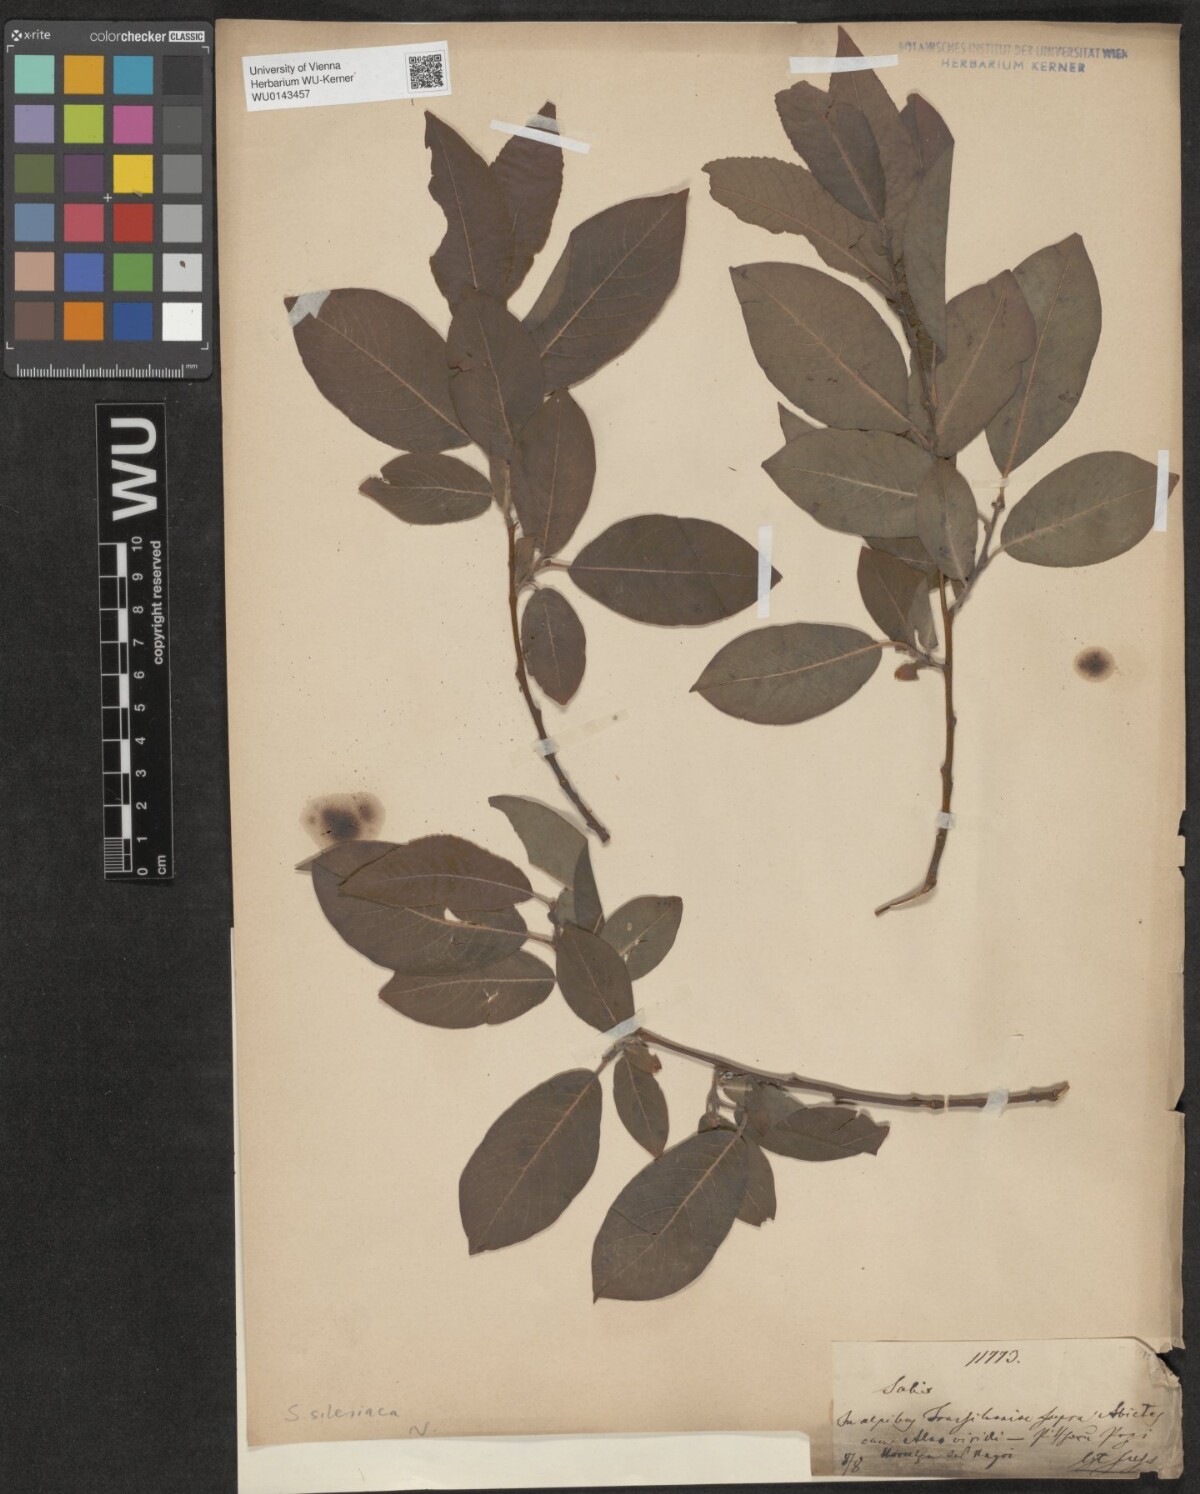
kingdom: Plantae
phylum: Tracheophyta
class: Magnoliopsida
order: Malpighiales
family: Salicaceae
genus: Salix
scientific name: Salix silesiaca
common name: Silesian willow
